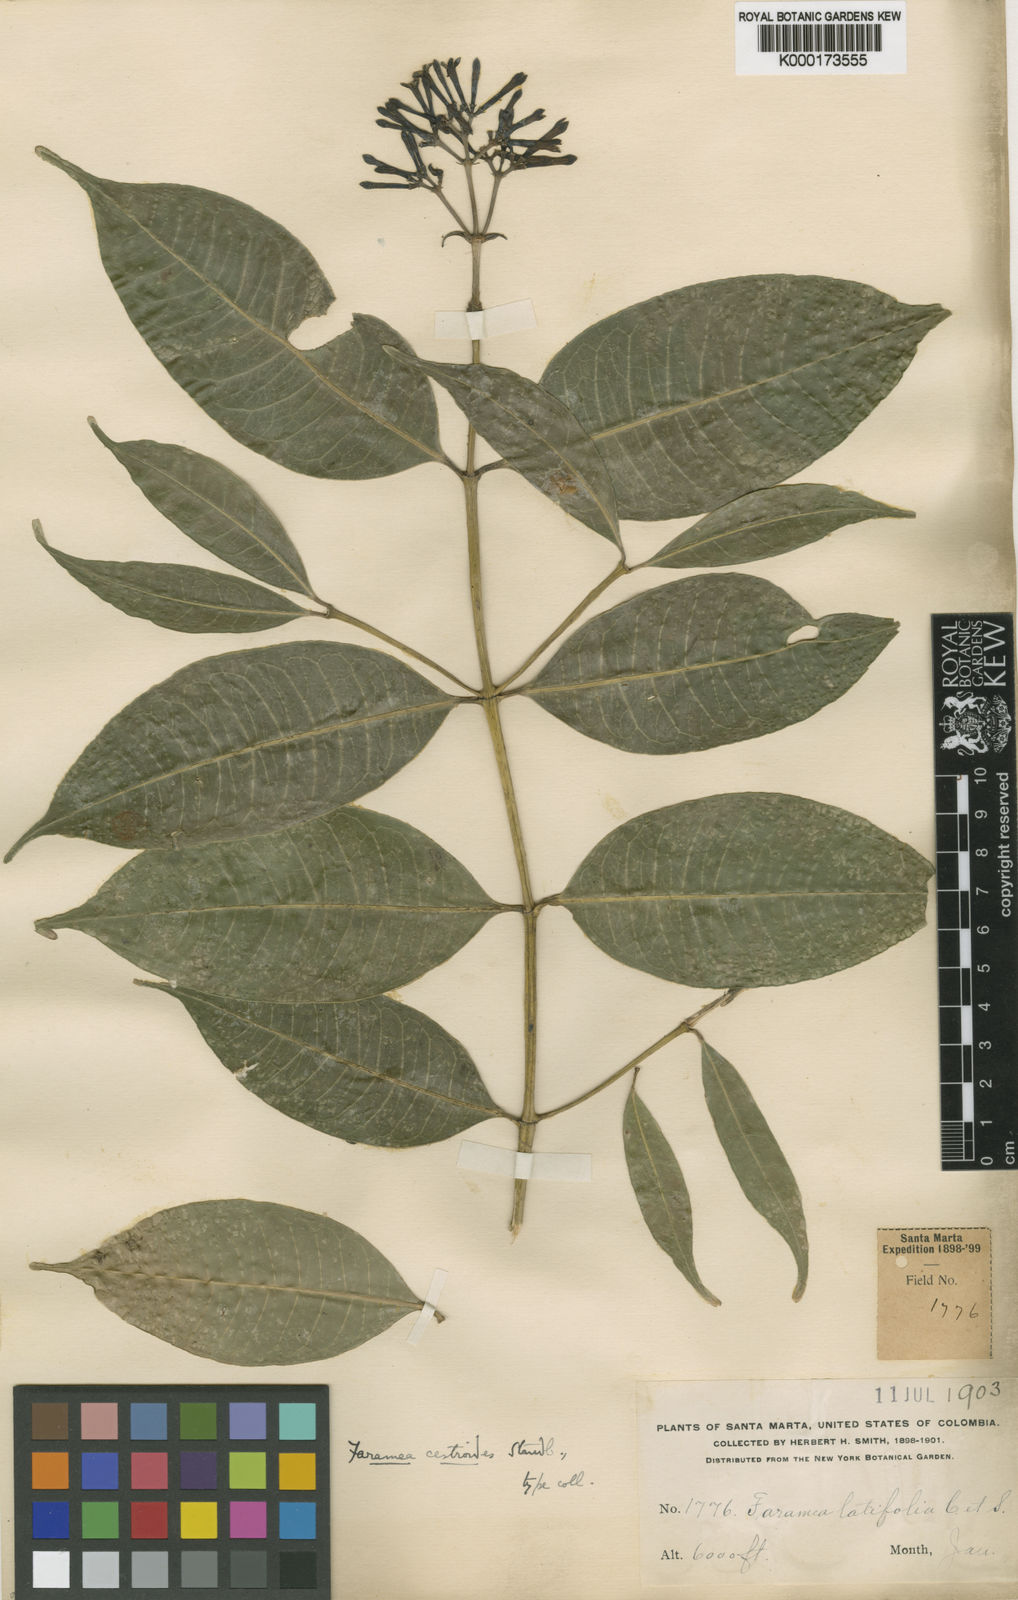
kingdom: Plantae
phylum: Tracheophyta
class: Magnoliopsida
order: Gentianales
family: Rubiaceae
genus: Faramea
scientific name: Faramea latifolia
